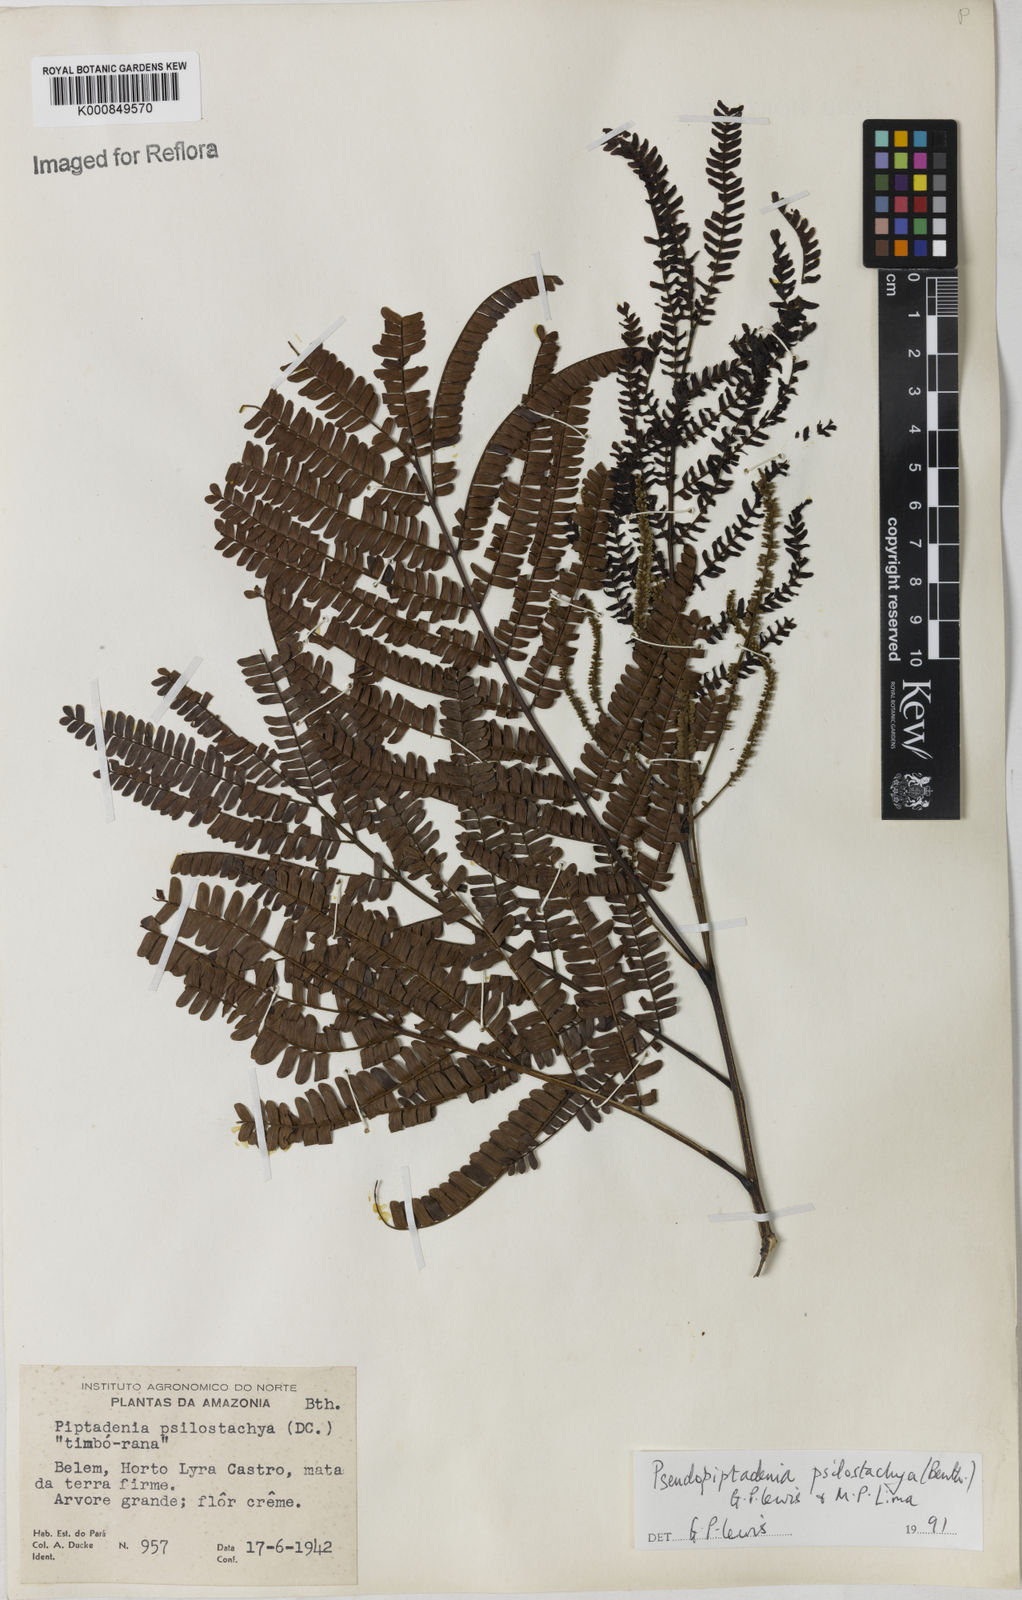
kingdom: Plantae
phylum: Tracheophyta
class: Magnoliopsida
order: Fabales
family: Fabaceae
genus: Pseudopiptadenia
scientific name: Pseudopiptadenia psilostachya
